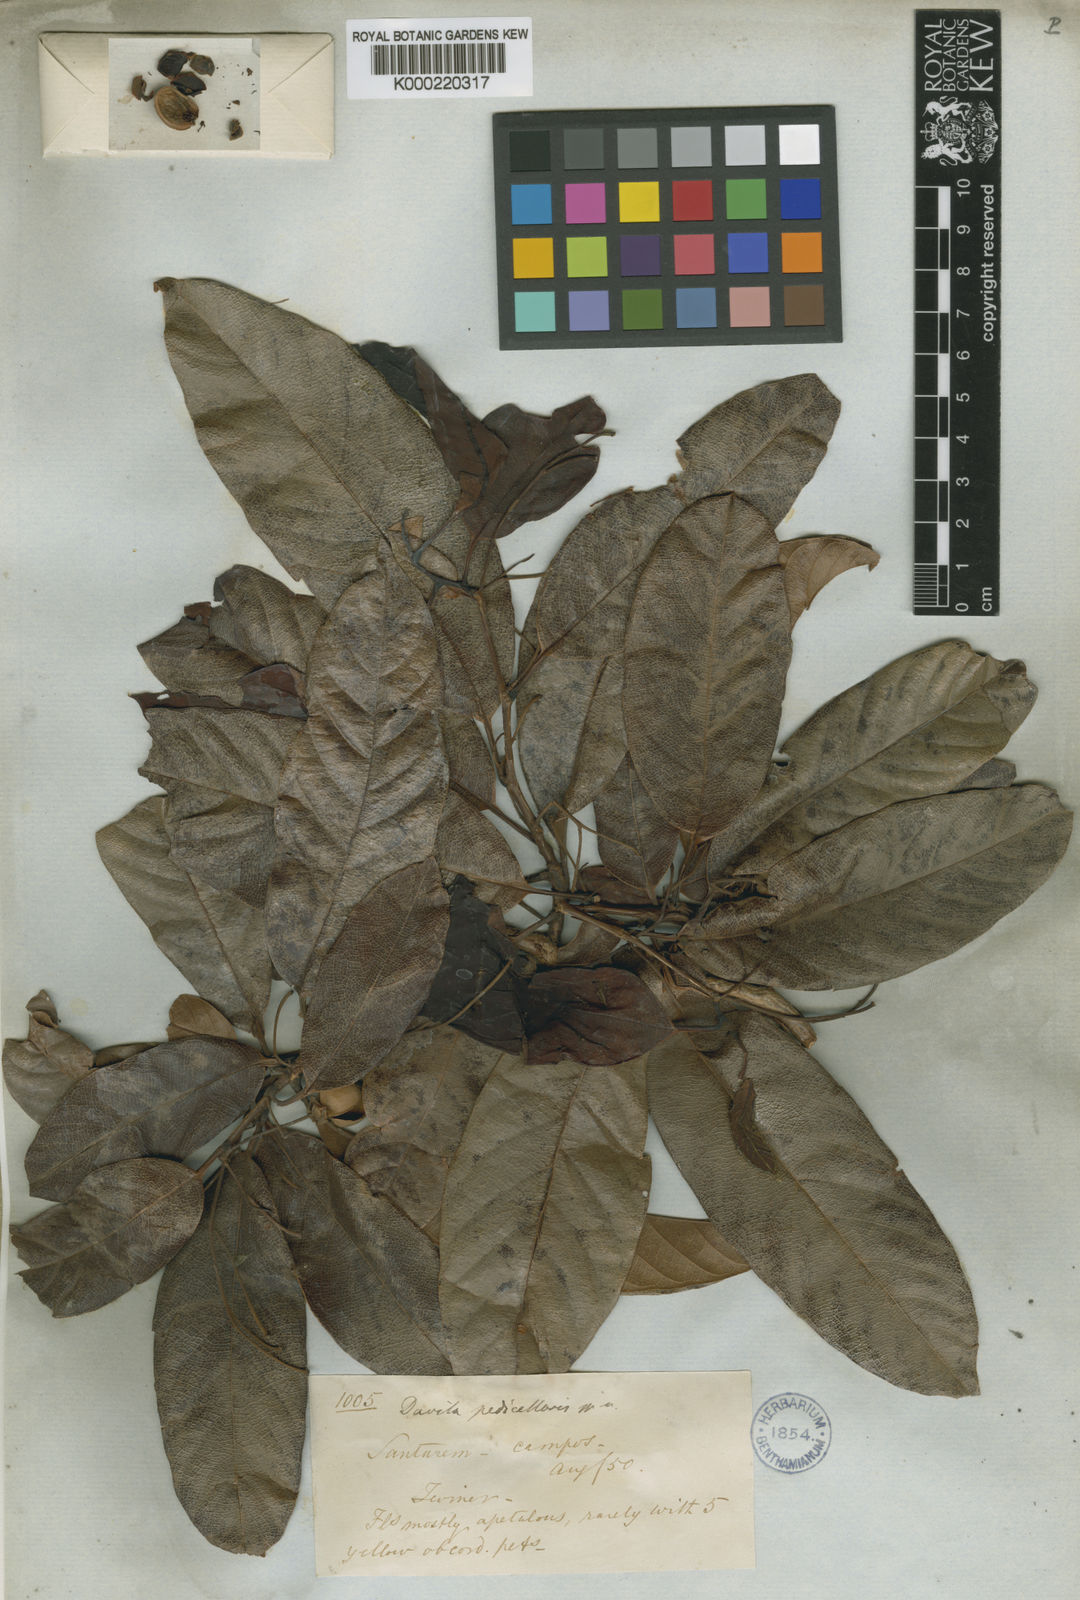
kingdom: Plantae
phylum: Tracheophyta
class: Magnoliopsida
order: Dilleniales
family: Dilleniaceae
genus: Davilla
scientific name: Davilla pedicellaris
